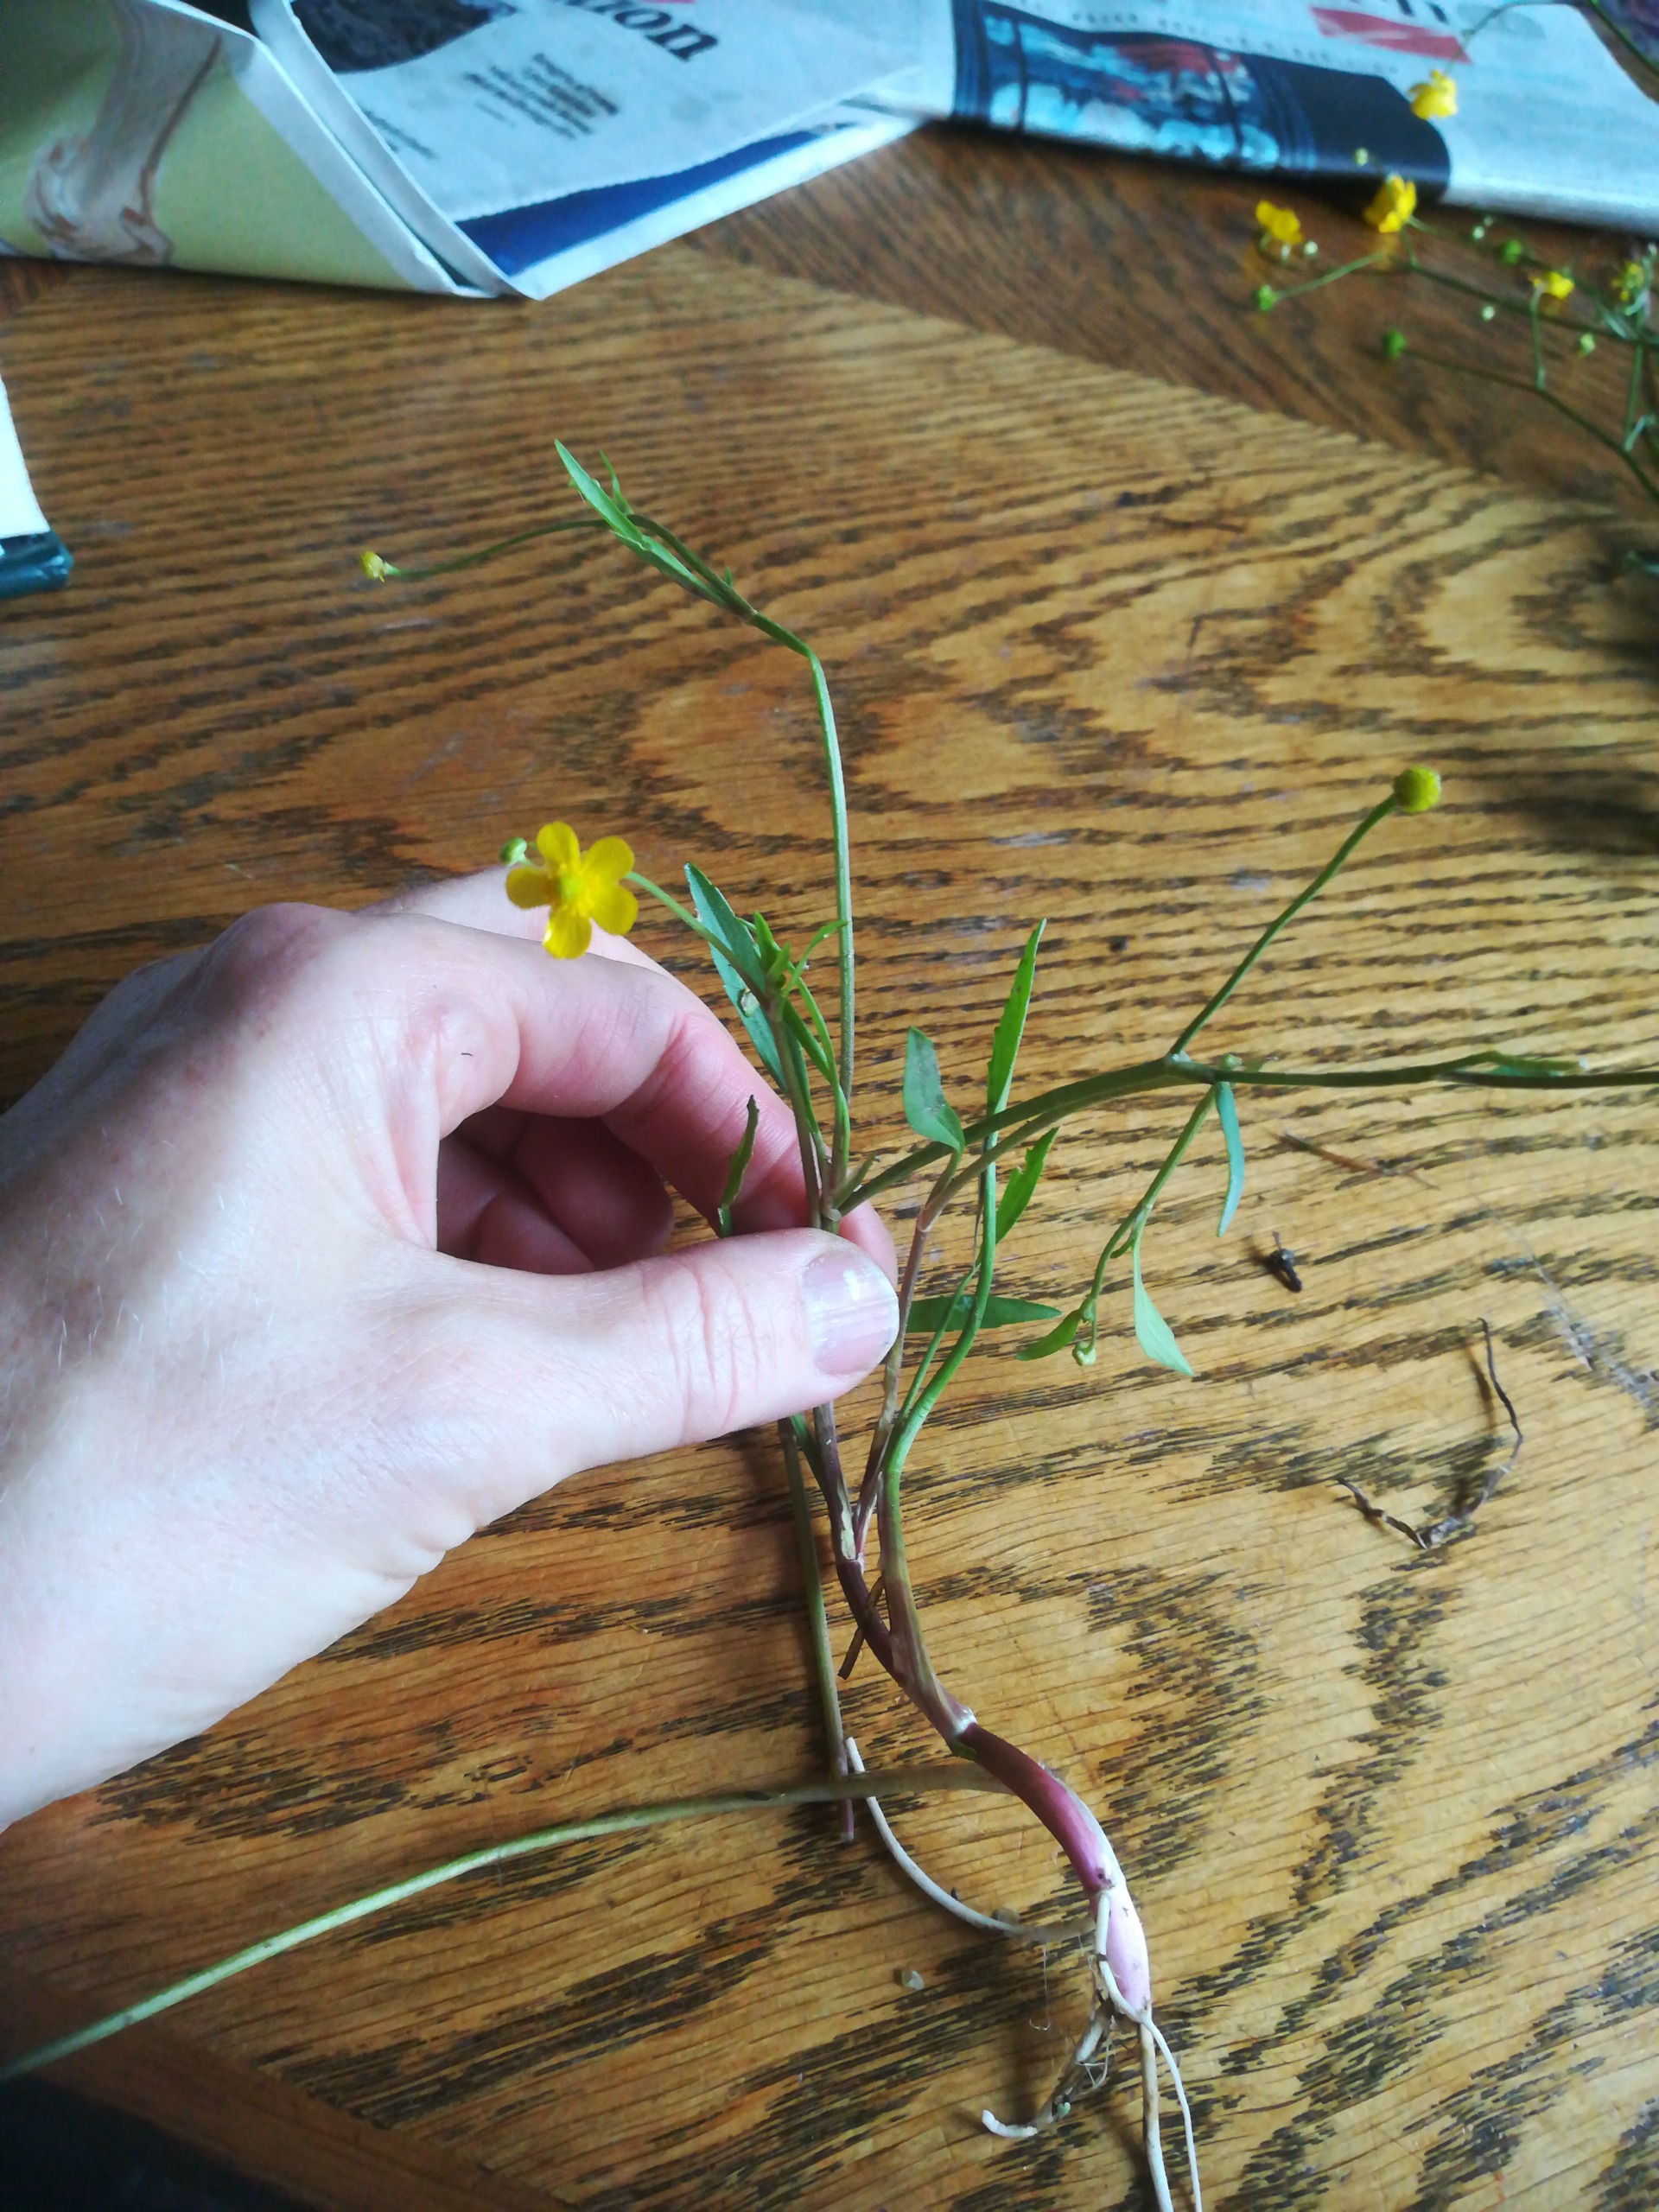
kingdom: Plantae
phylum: Tracheophyta
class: Magnoliopsida
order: Ranunculales
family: Ranunculaceae
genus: Ranunculus
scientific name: Ranunculus flammula
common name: Kær-ranunkel
